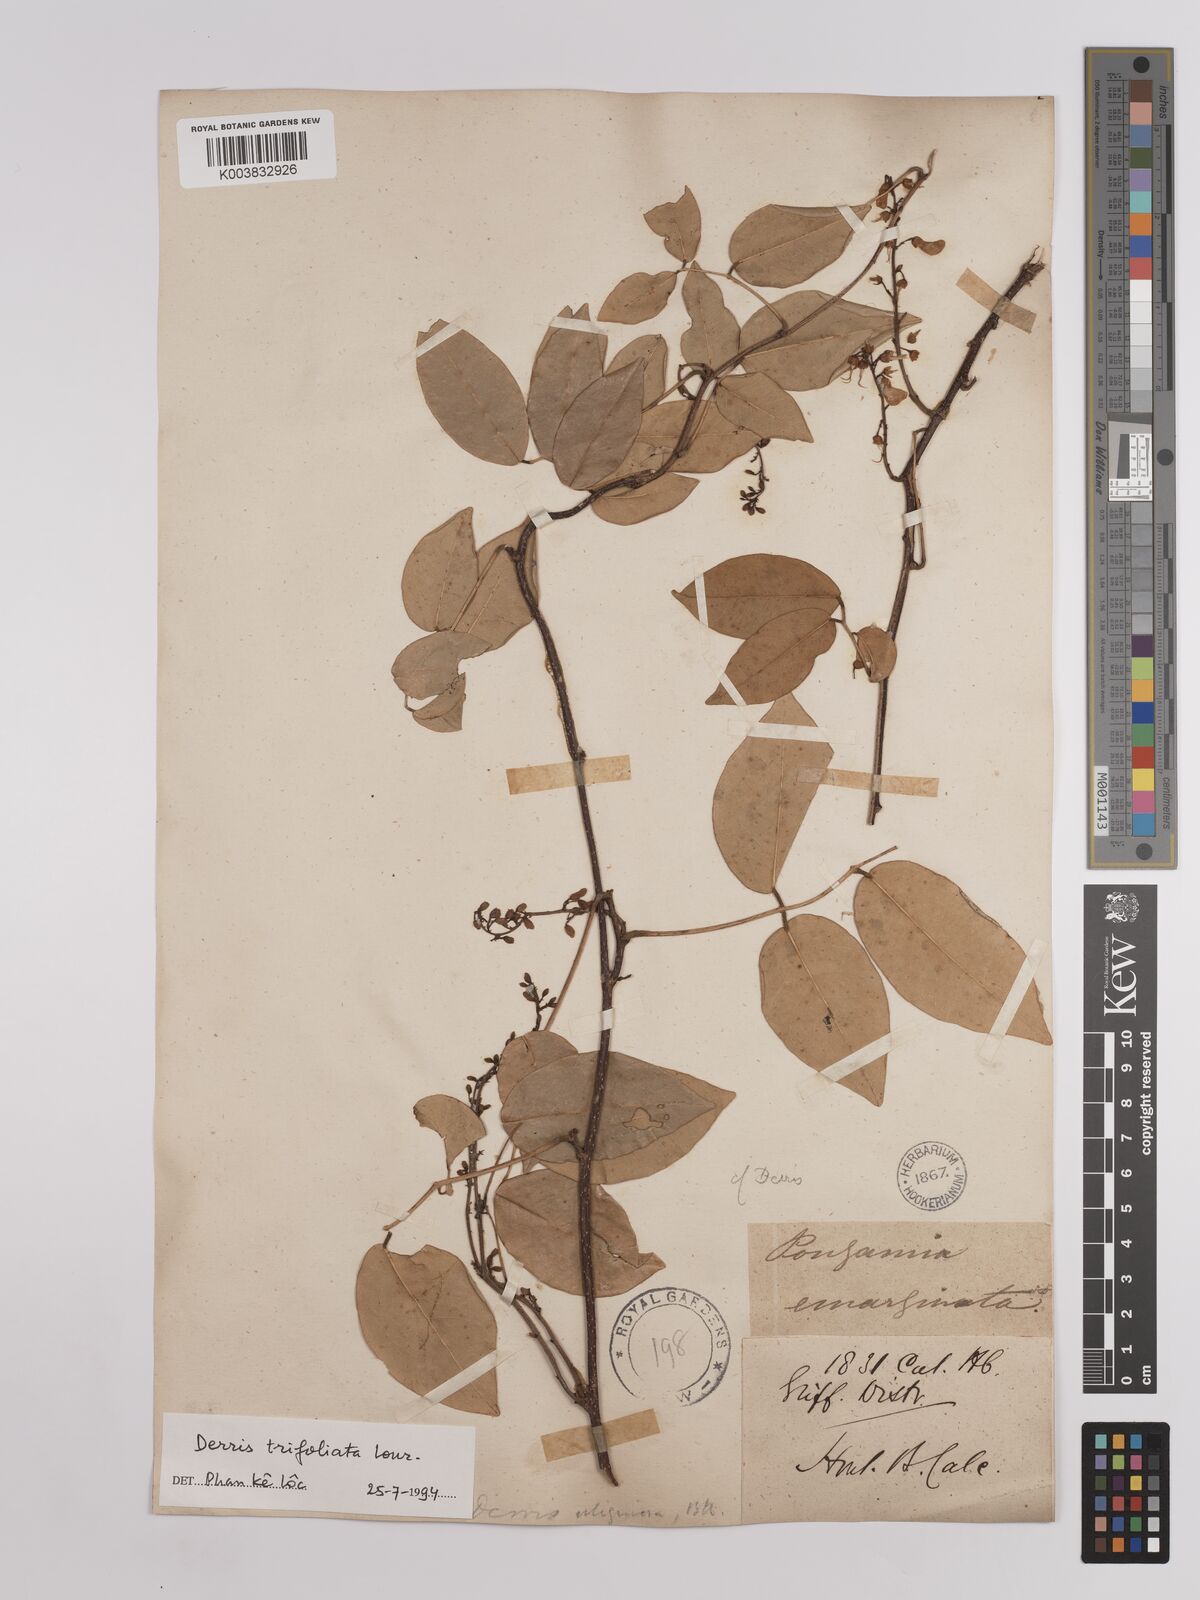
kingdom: Plantae
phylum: Tracheophyta
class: Magnoliopsida
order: Fabales
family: Fabaceae
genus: Derris
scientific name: Derris trifoliata
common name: Three-leaf derris
